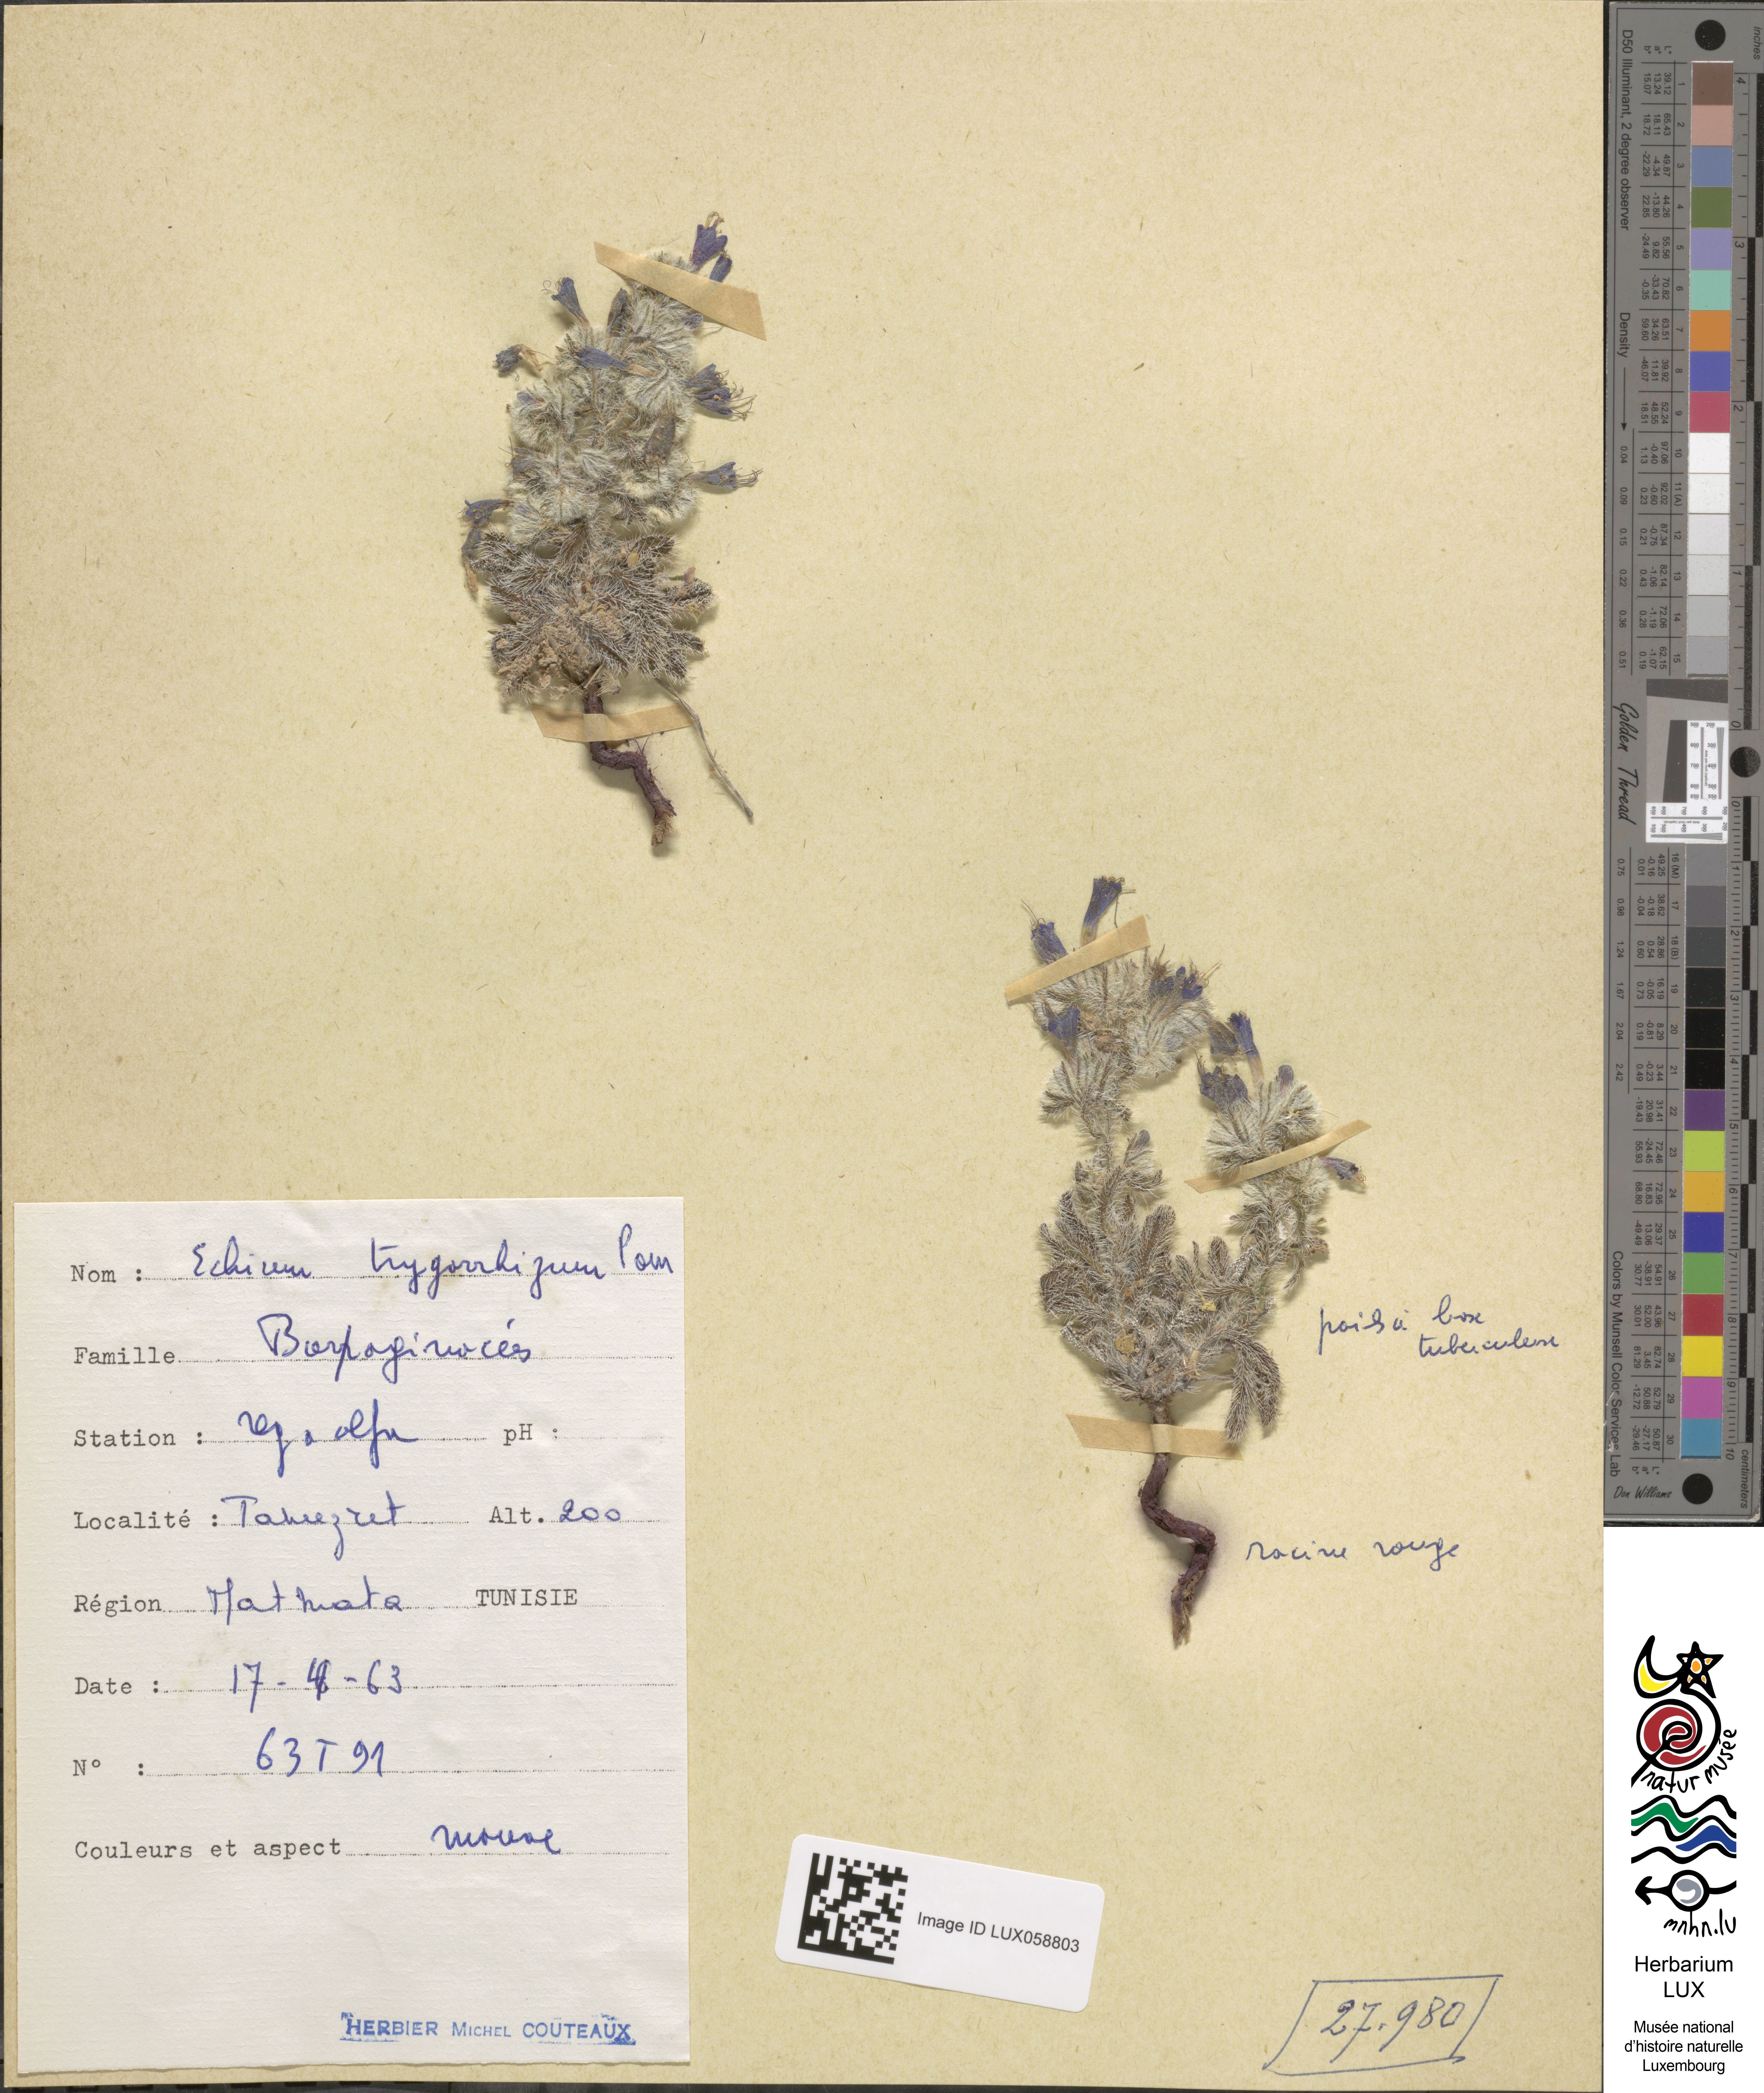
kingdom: Plantae
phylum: Tracheophyta
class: Magnoliopsida
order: Boraginales
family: Boraginaceae
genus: Echium
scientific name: Echium trygorrhizum
